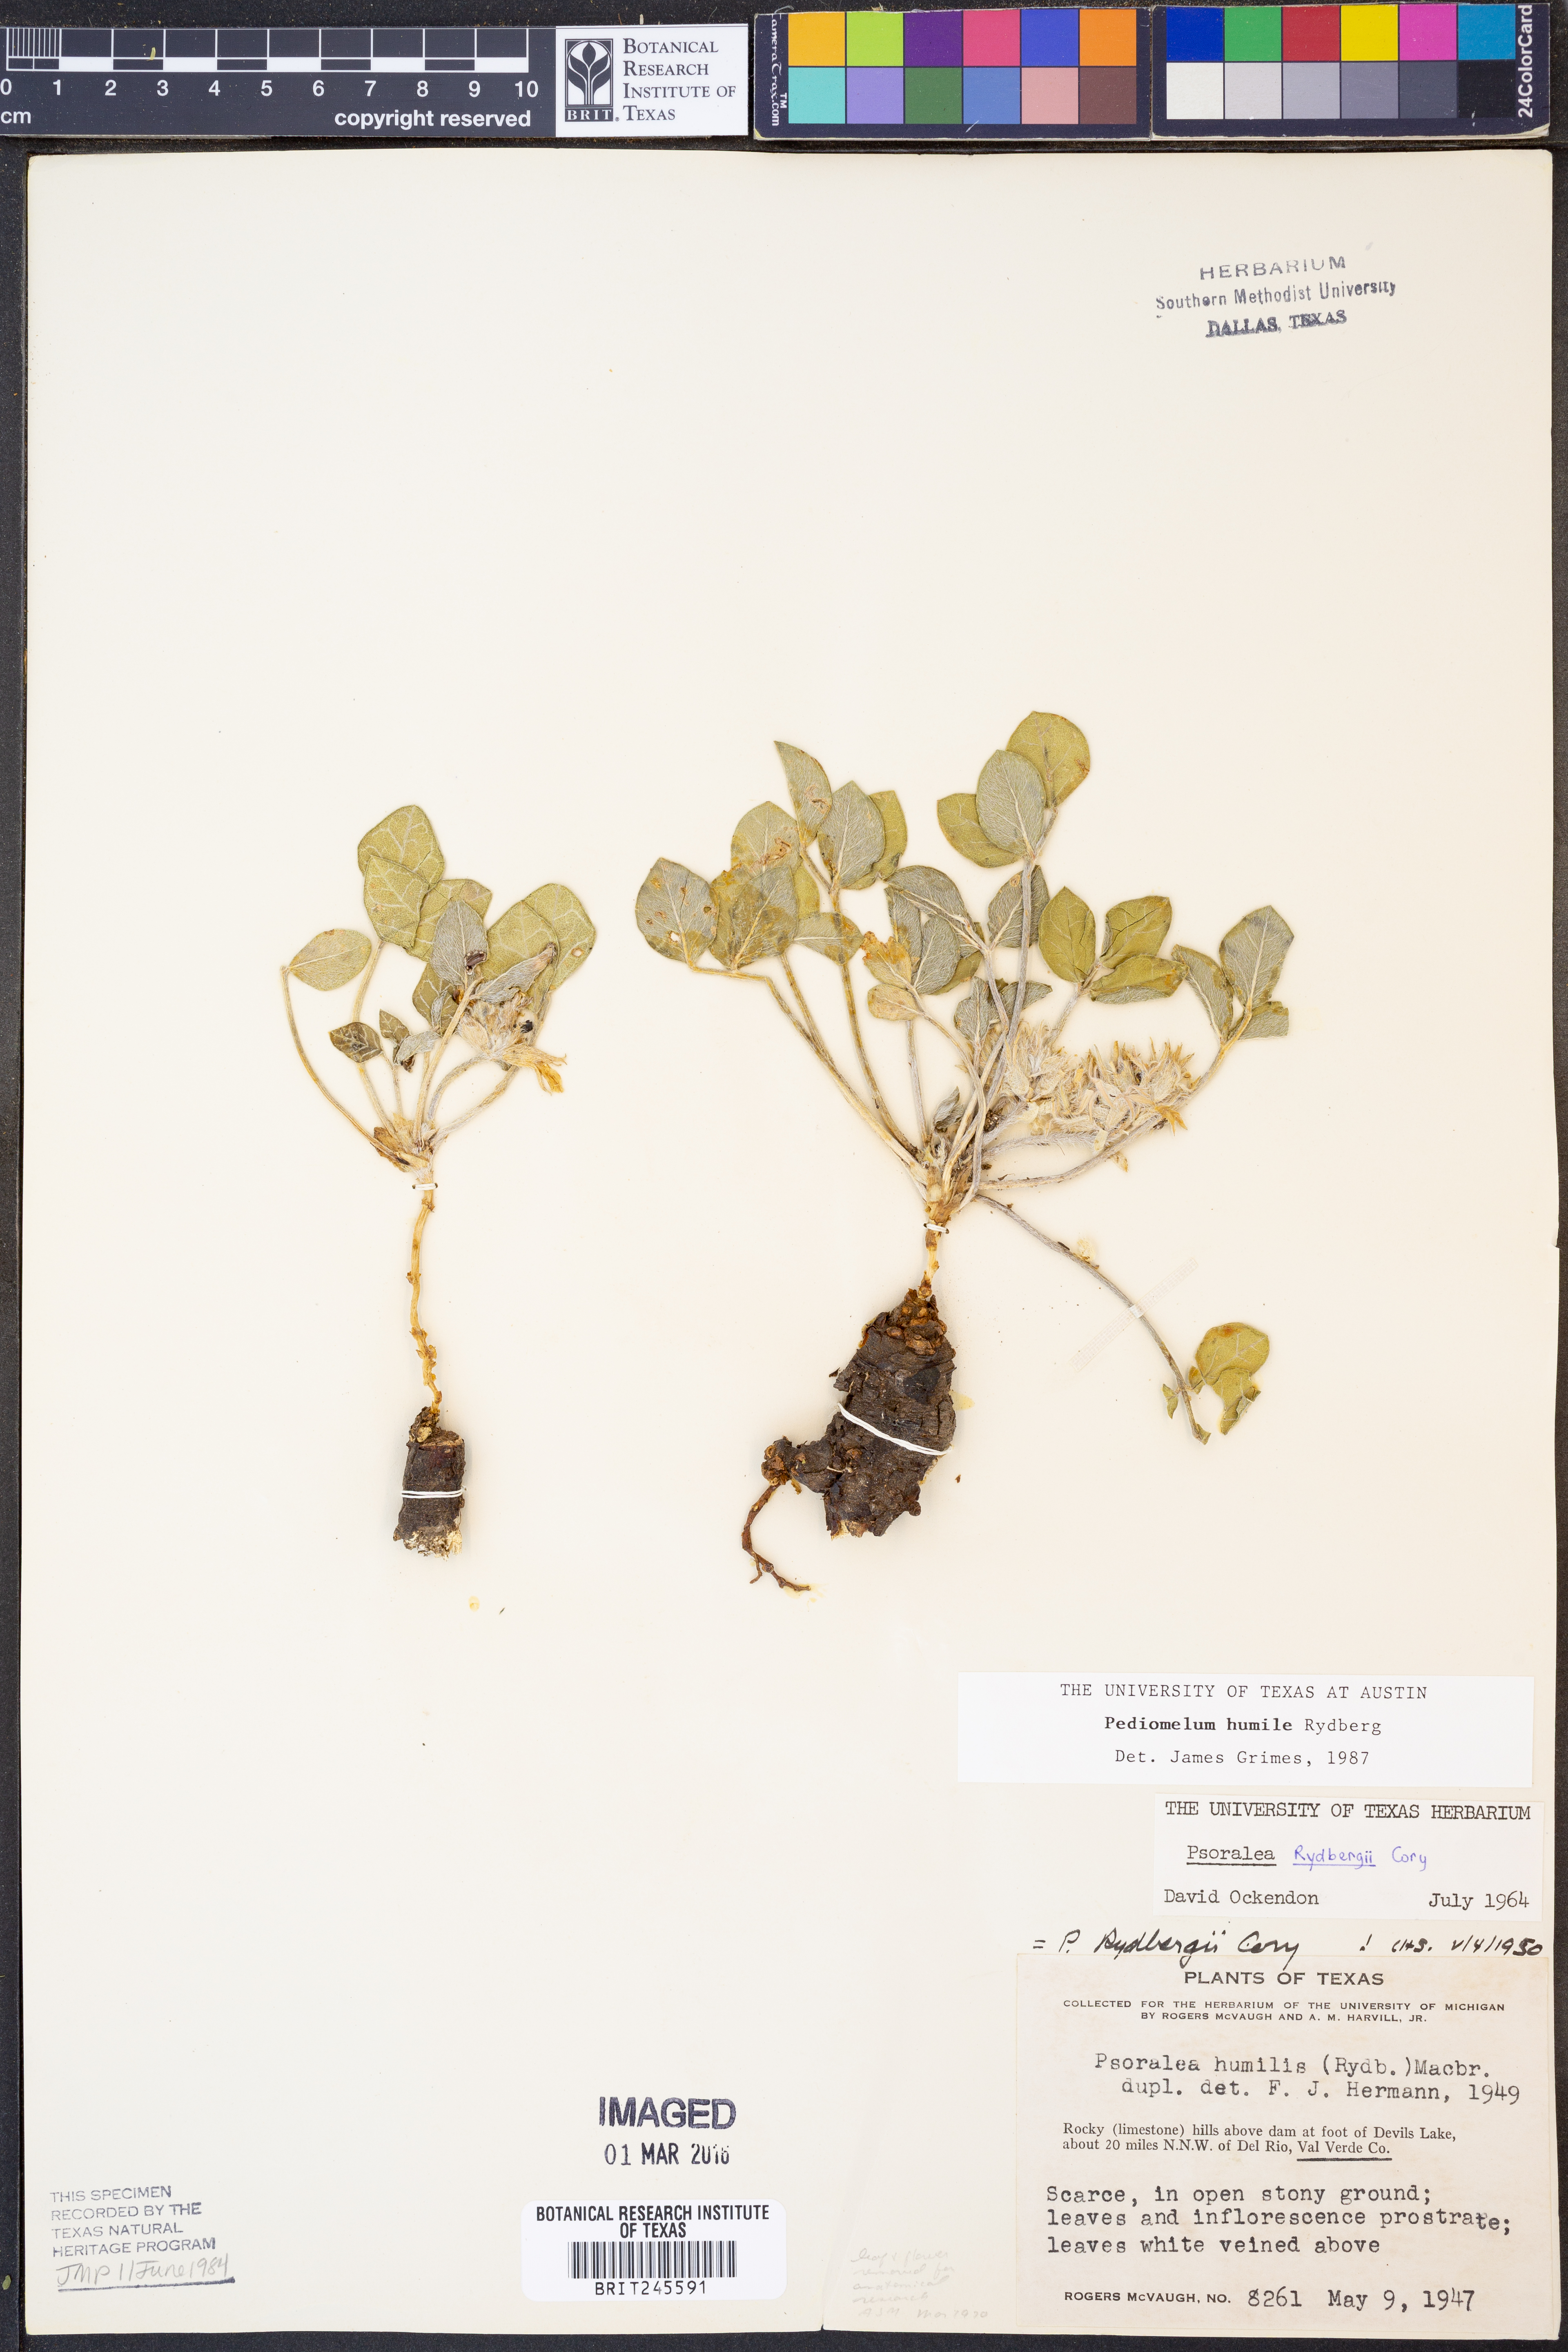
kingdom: Plantae
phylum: Tracheophyta
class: Magnoliopsida
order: Fabales
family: Fabaceae
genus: Pediomelum
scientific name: Pediomelum humile
